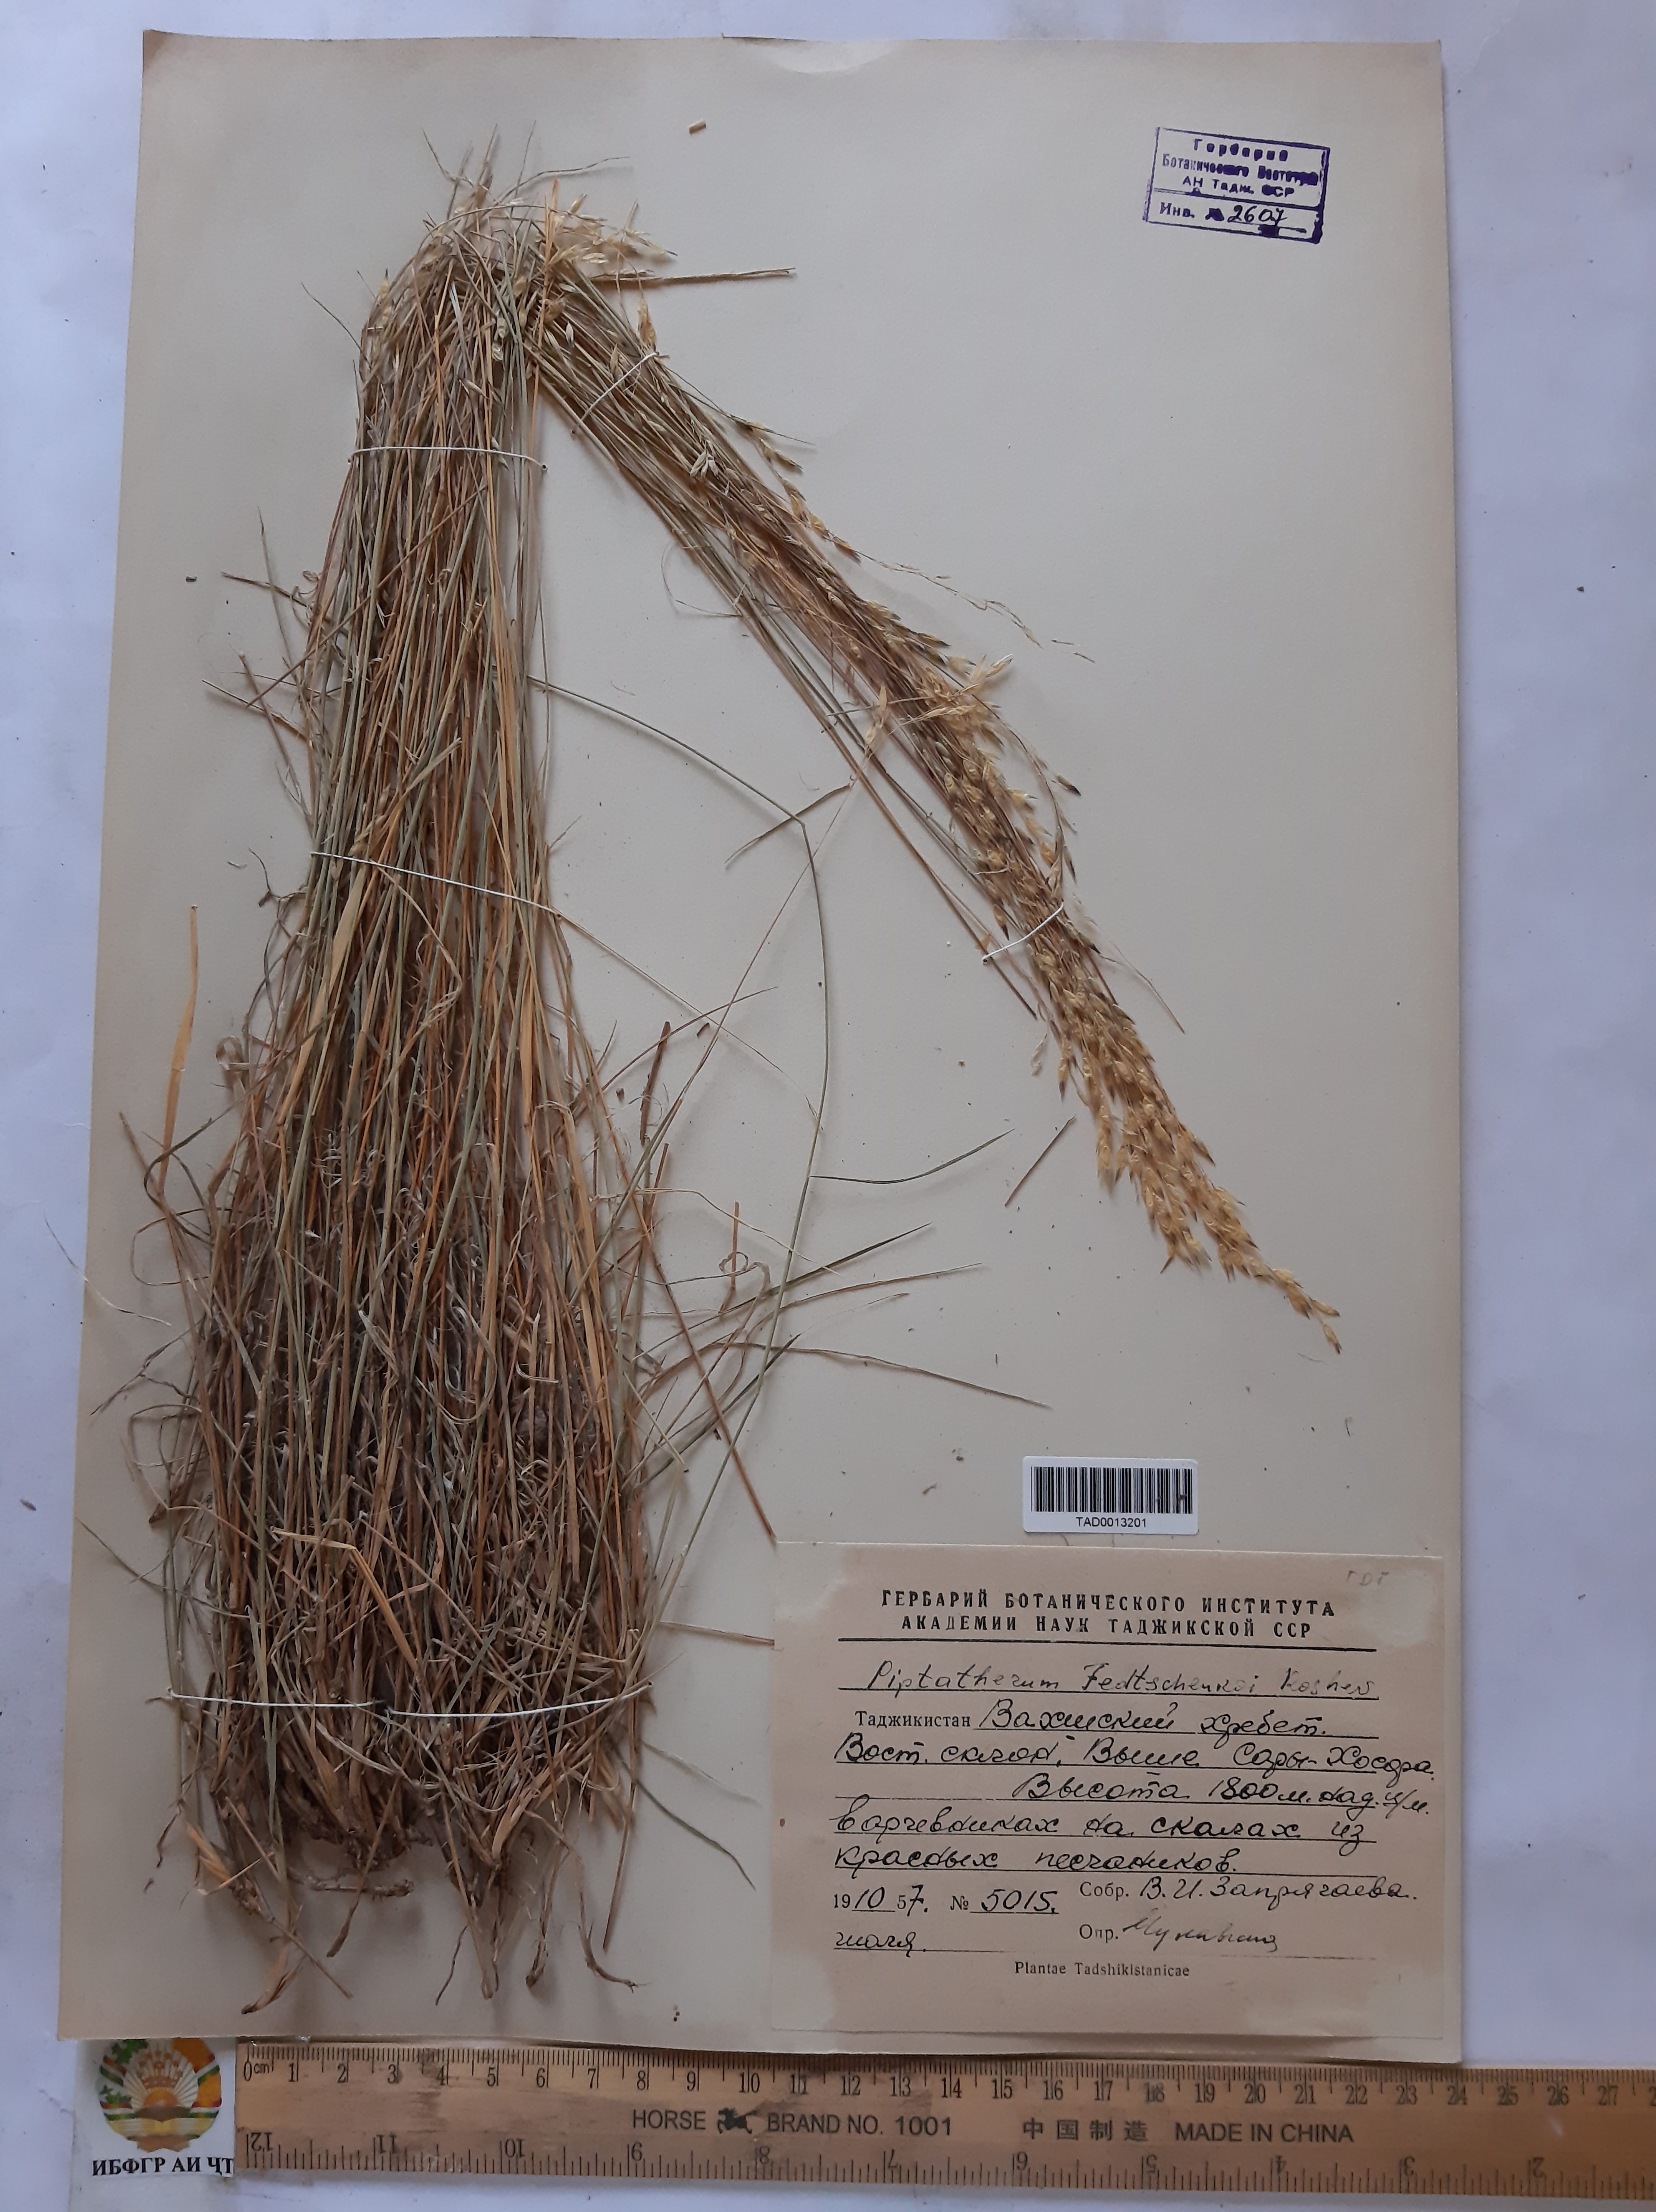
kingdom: Plantae
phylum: Tracheophyta
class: Liliopsida
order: Poales
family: Poaceae
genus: Piptatherum
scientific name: Piptatherum sogdianum
